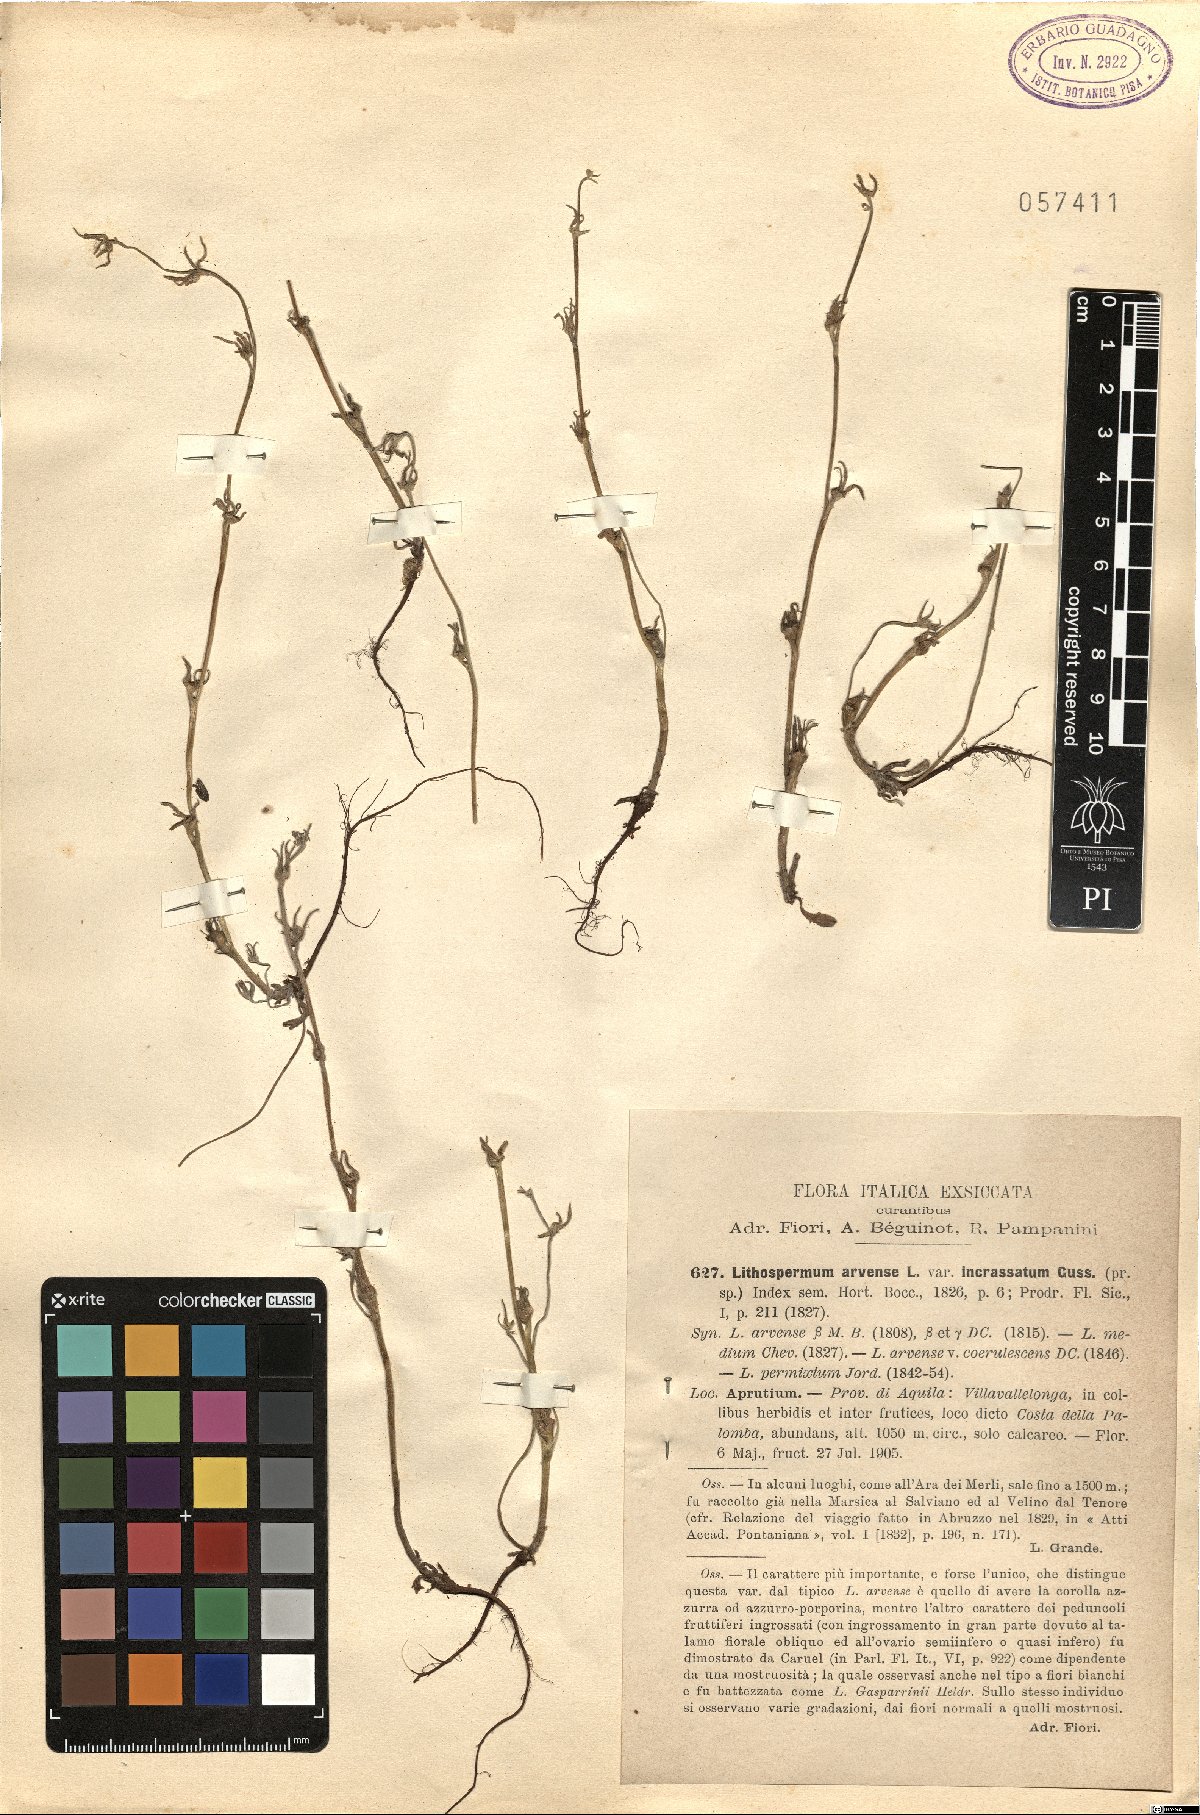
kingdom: Plantae
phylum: Tracheophyta
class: Magnoliopsida
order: Boraginales
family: Boraginaceae
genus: Buglossoides
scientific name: Buglossoides incrassata
